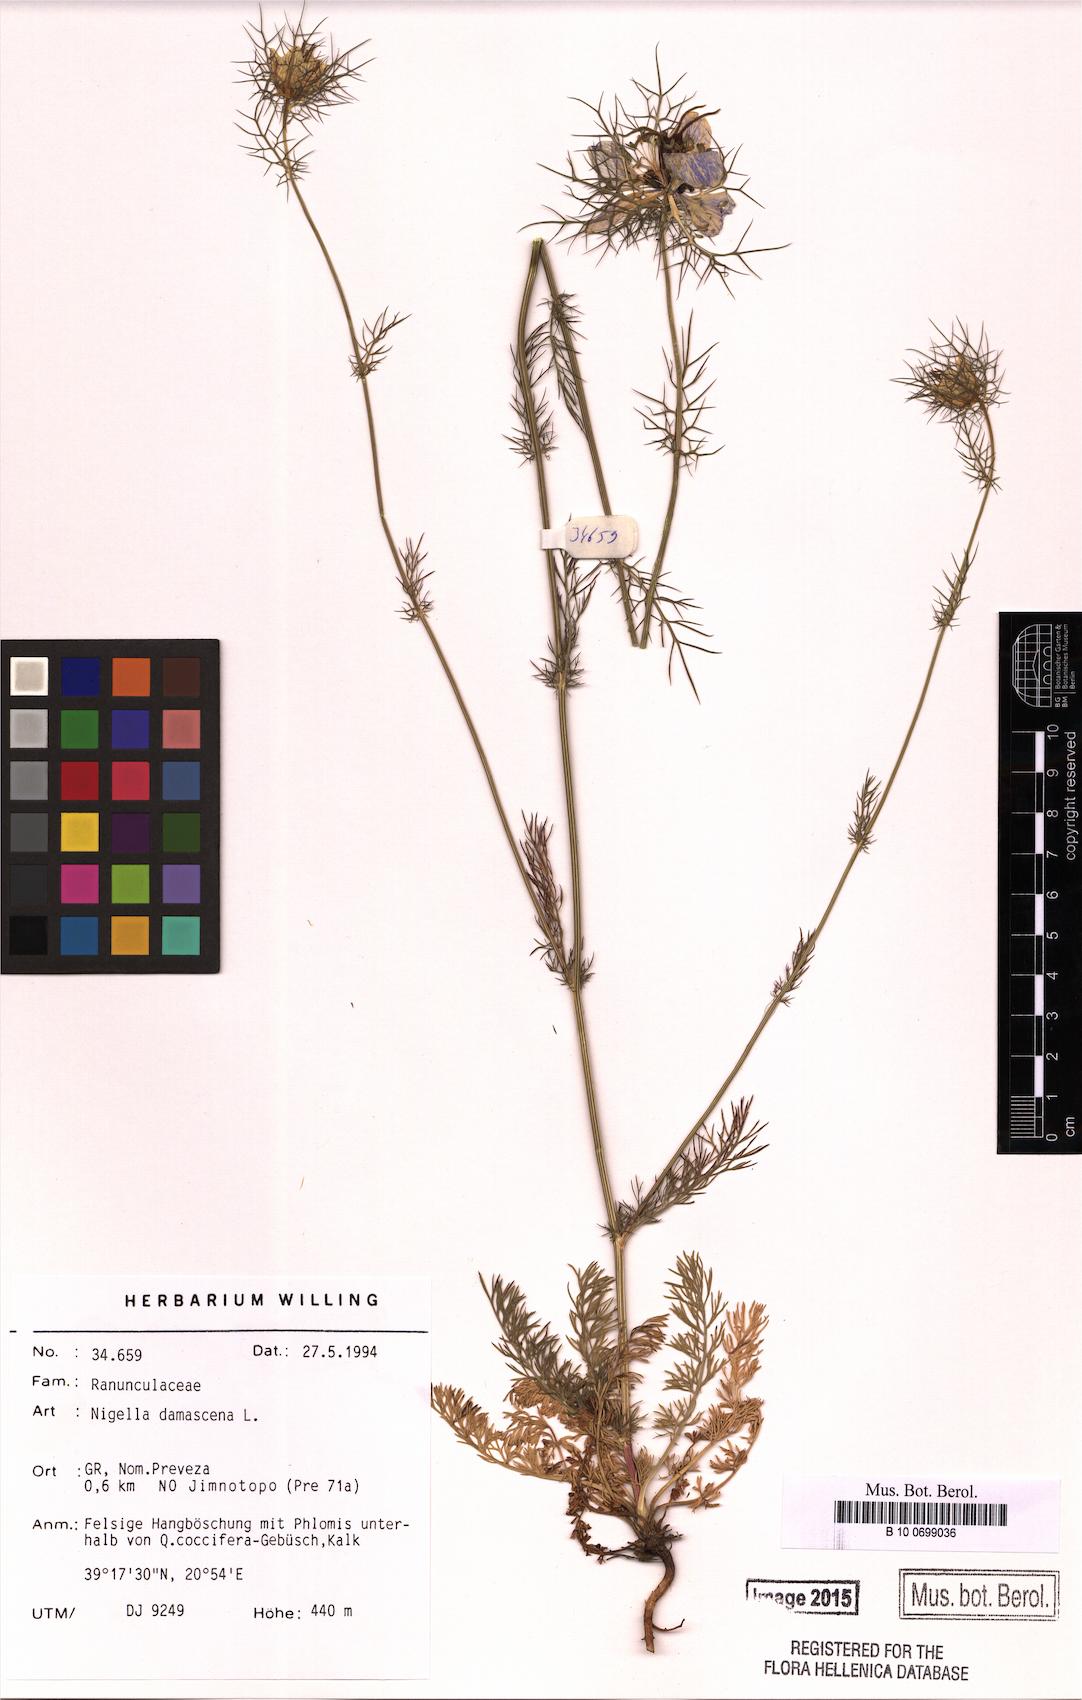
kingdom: Plantae
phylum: Tracheophyta
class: Magnoliopsida
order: Ranunculales
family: Ranunculaceae
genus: Nigella
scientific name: Nigella damascena
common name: Love-in-a-mist
